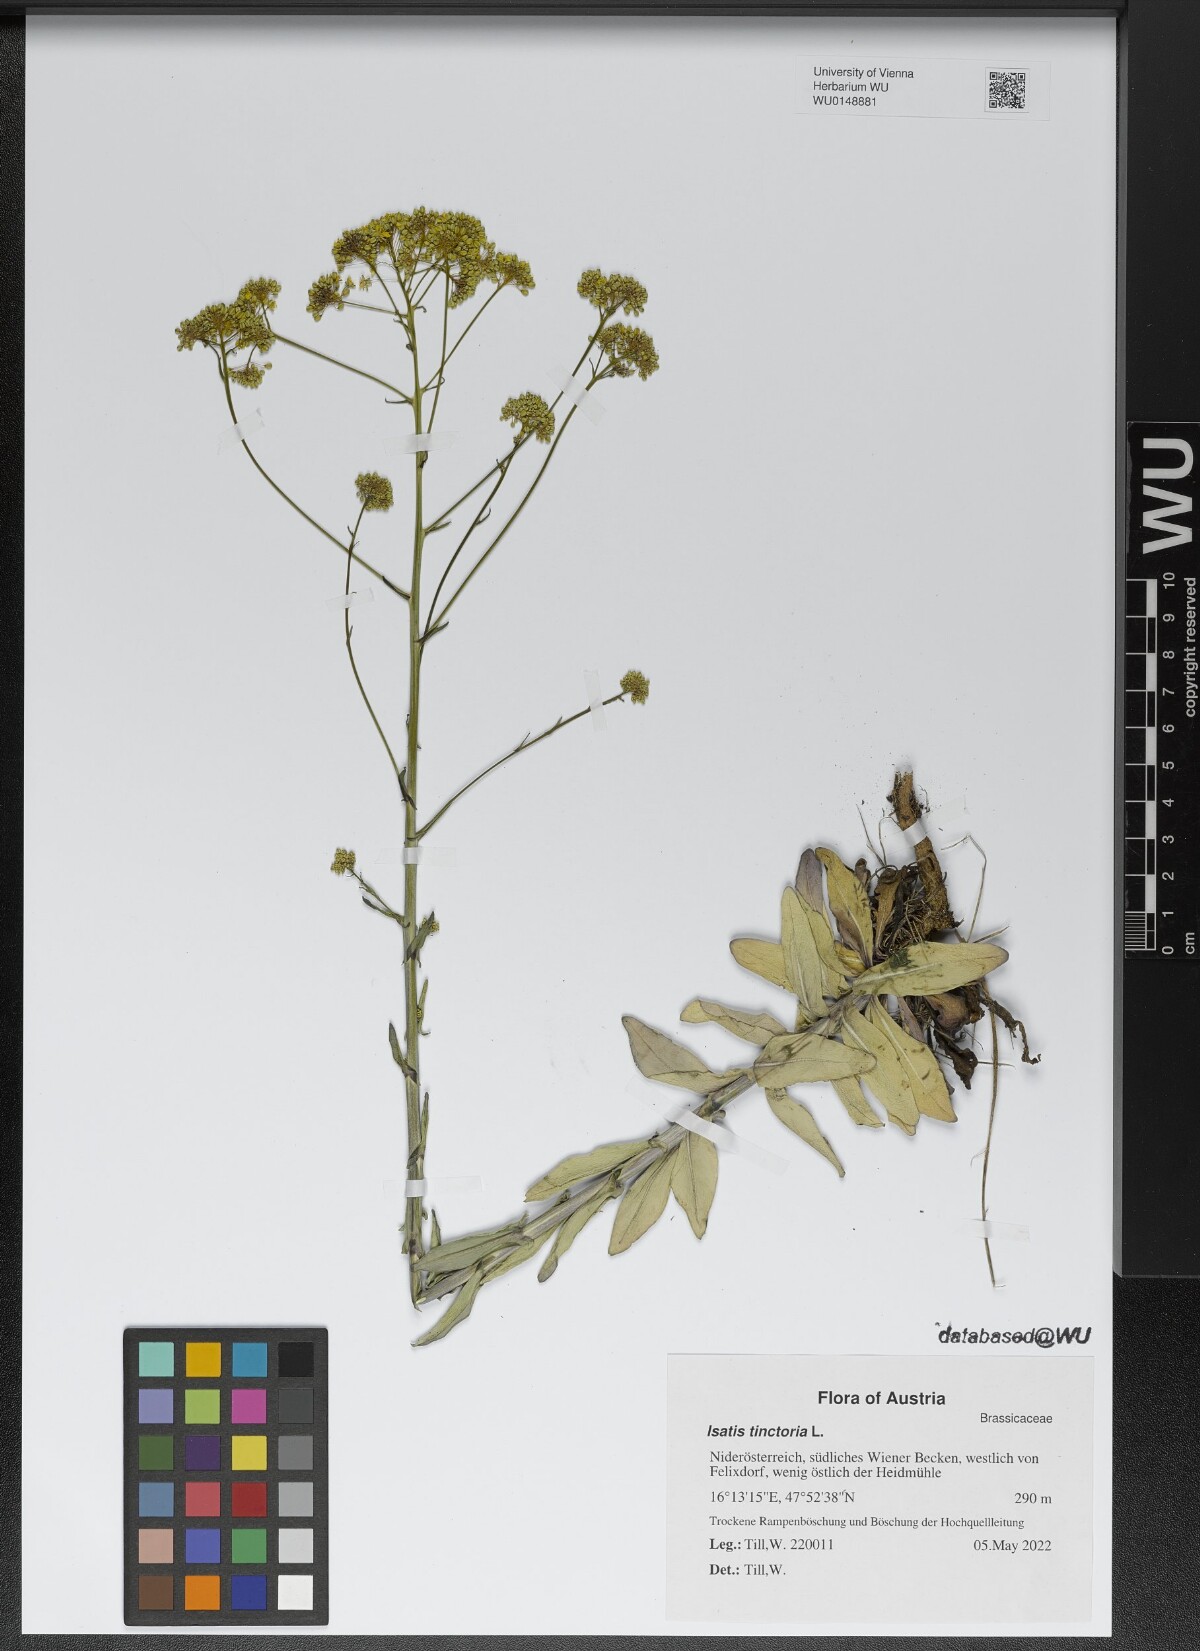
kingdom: Plantae
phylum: Tracheophyta
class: Magnoliopsida
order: Brassicales
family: Brassicaceae
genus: Isatis
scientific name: Isatis tinctoria
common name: Woad
